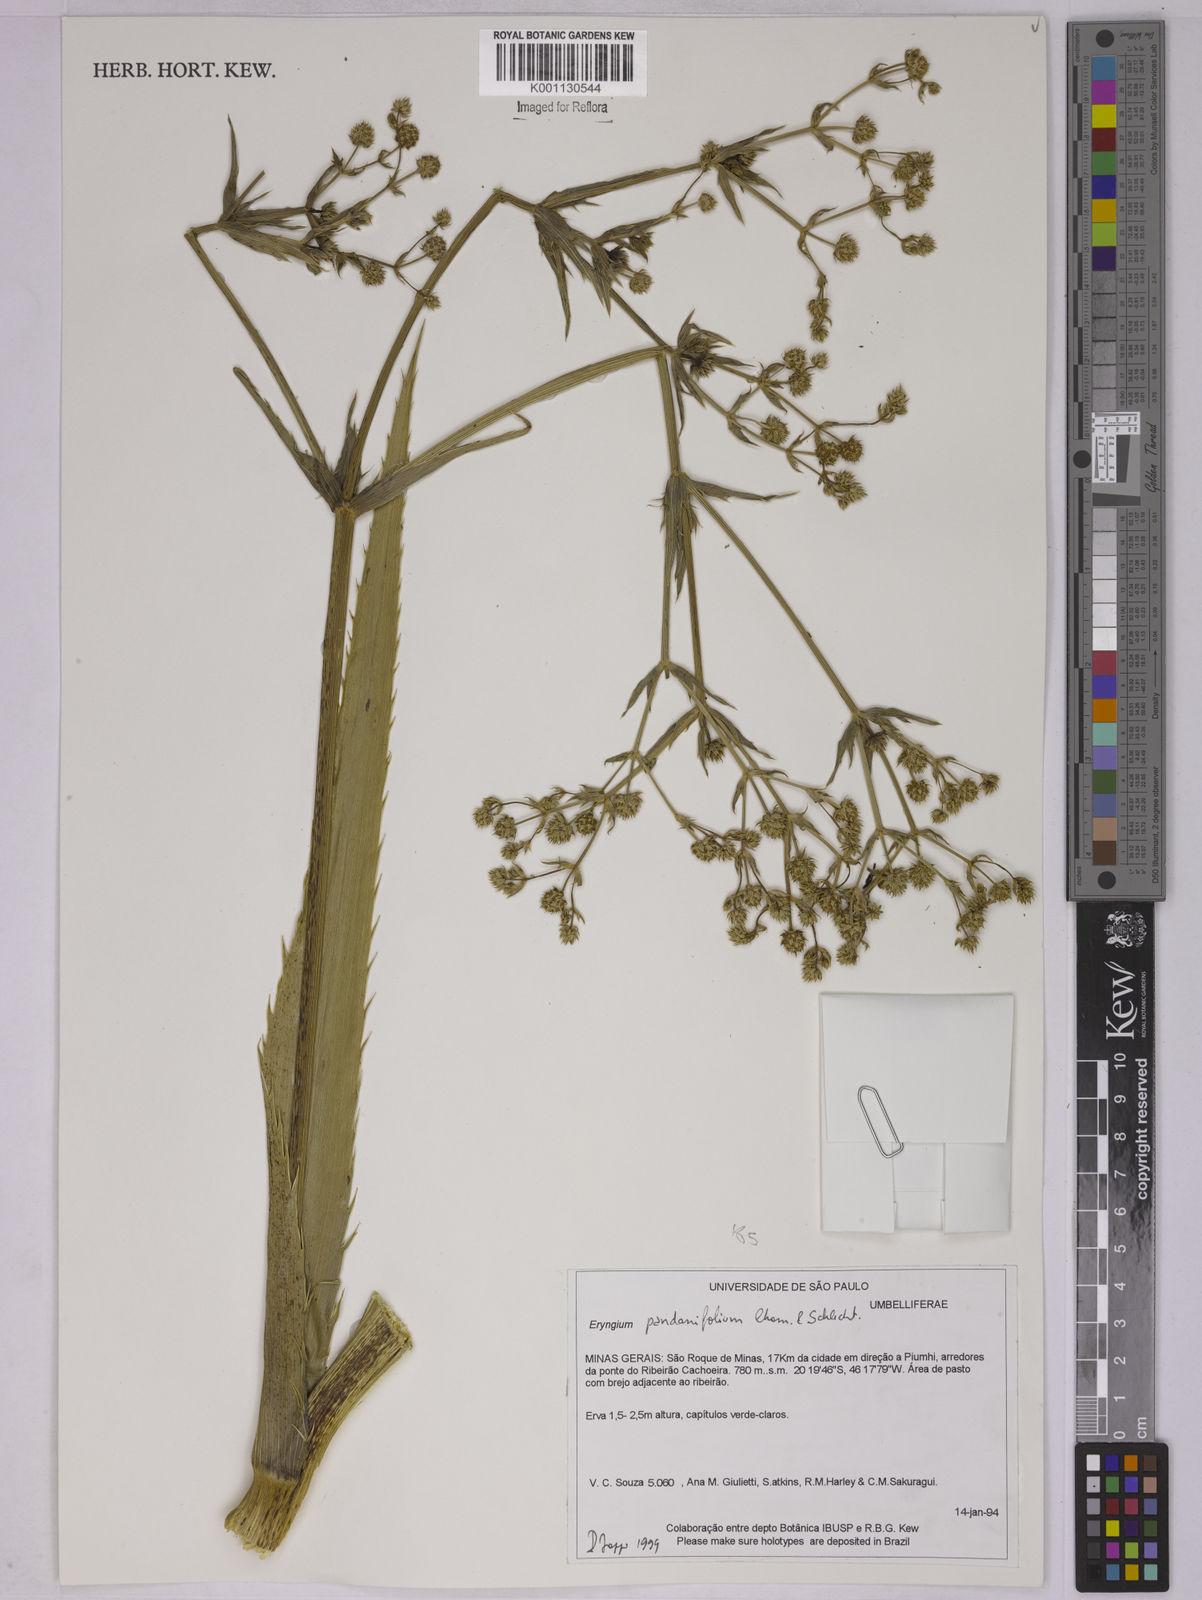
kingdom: Plantae
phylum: Tracheophyta
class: Magnoliopsida
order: Apiales
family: Apiaceae
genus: Eryngium
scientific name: Eryngium pandanifolium
